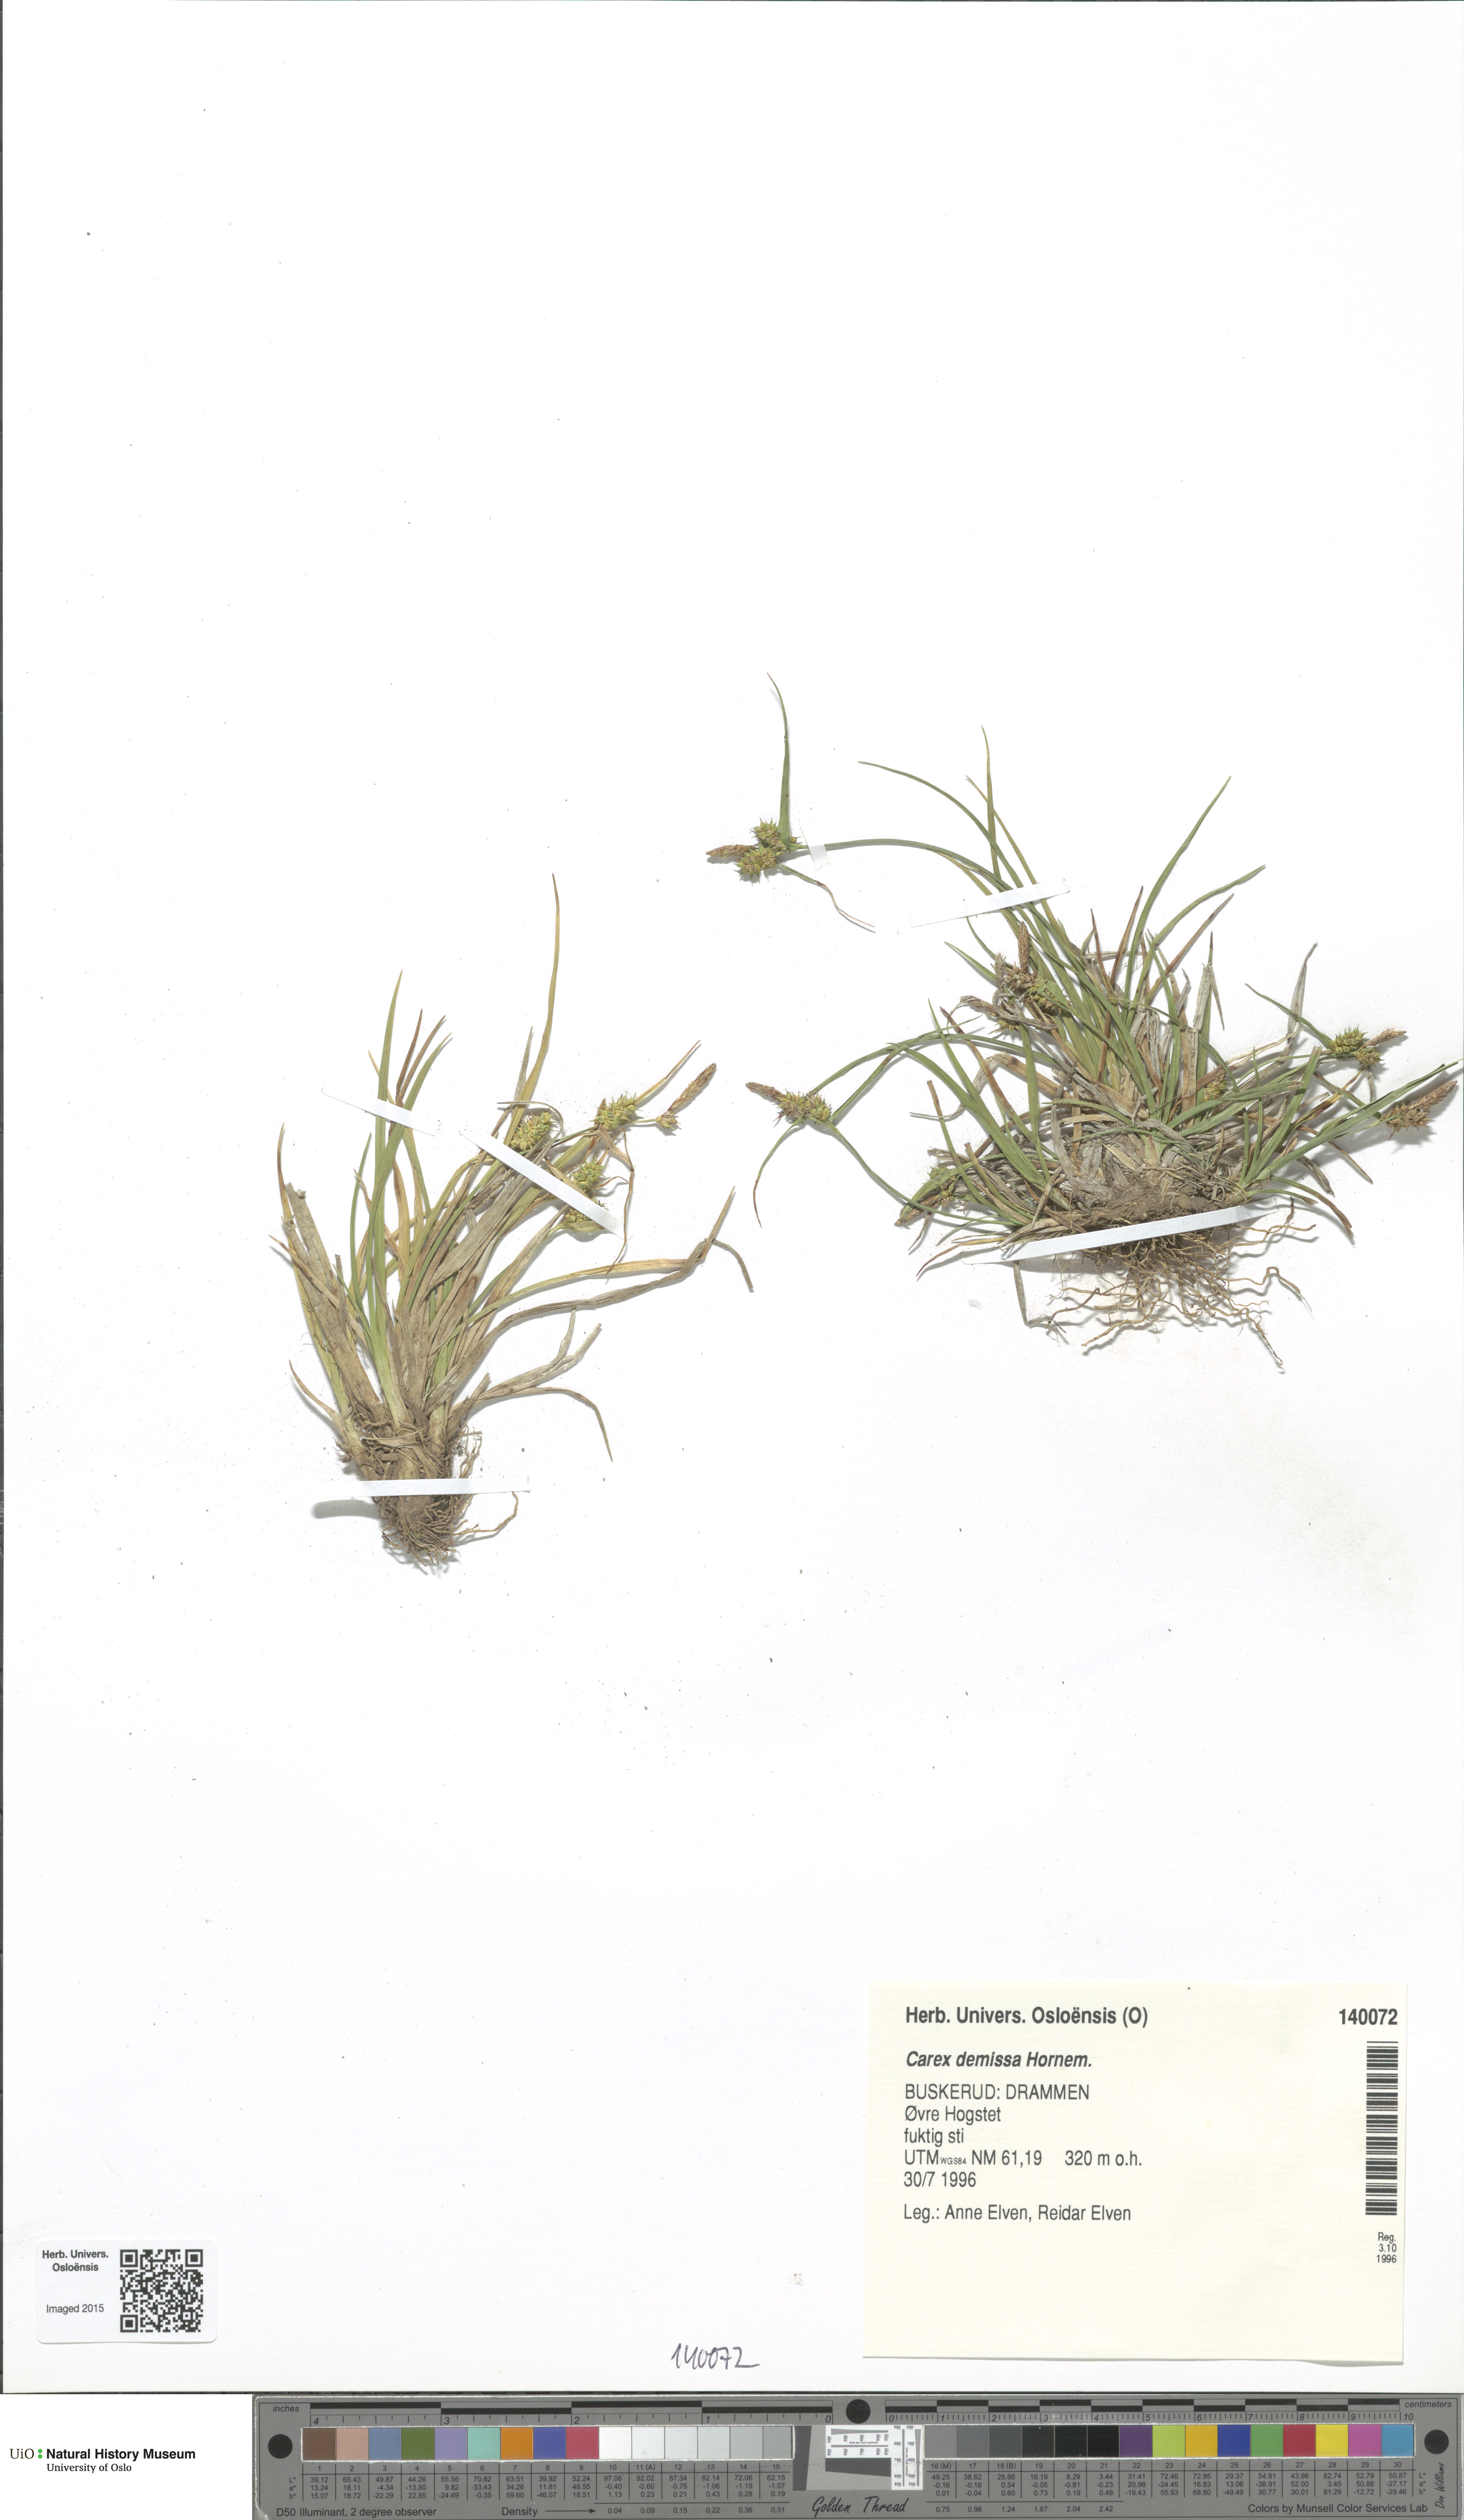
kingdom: Plantae
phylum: Tracheophyta
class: Liliopsida
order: Poales
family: Cyperaceae
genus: Carex
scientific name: Carex demissa
